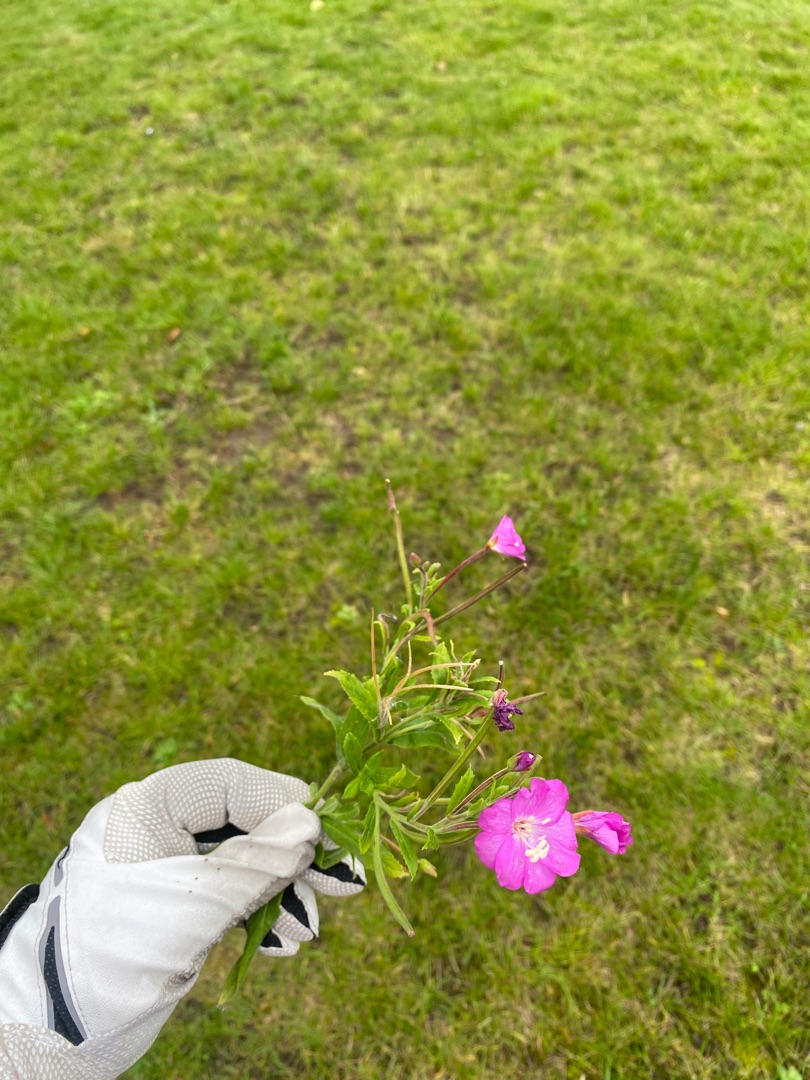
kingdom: Plantae
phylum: Tracheophyta
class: Magnoliopsida
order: Myrtales
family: Onagraceae
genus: Epilobium
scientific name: Epilobium hirsutum
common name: Lådden dueurt
